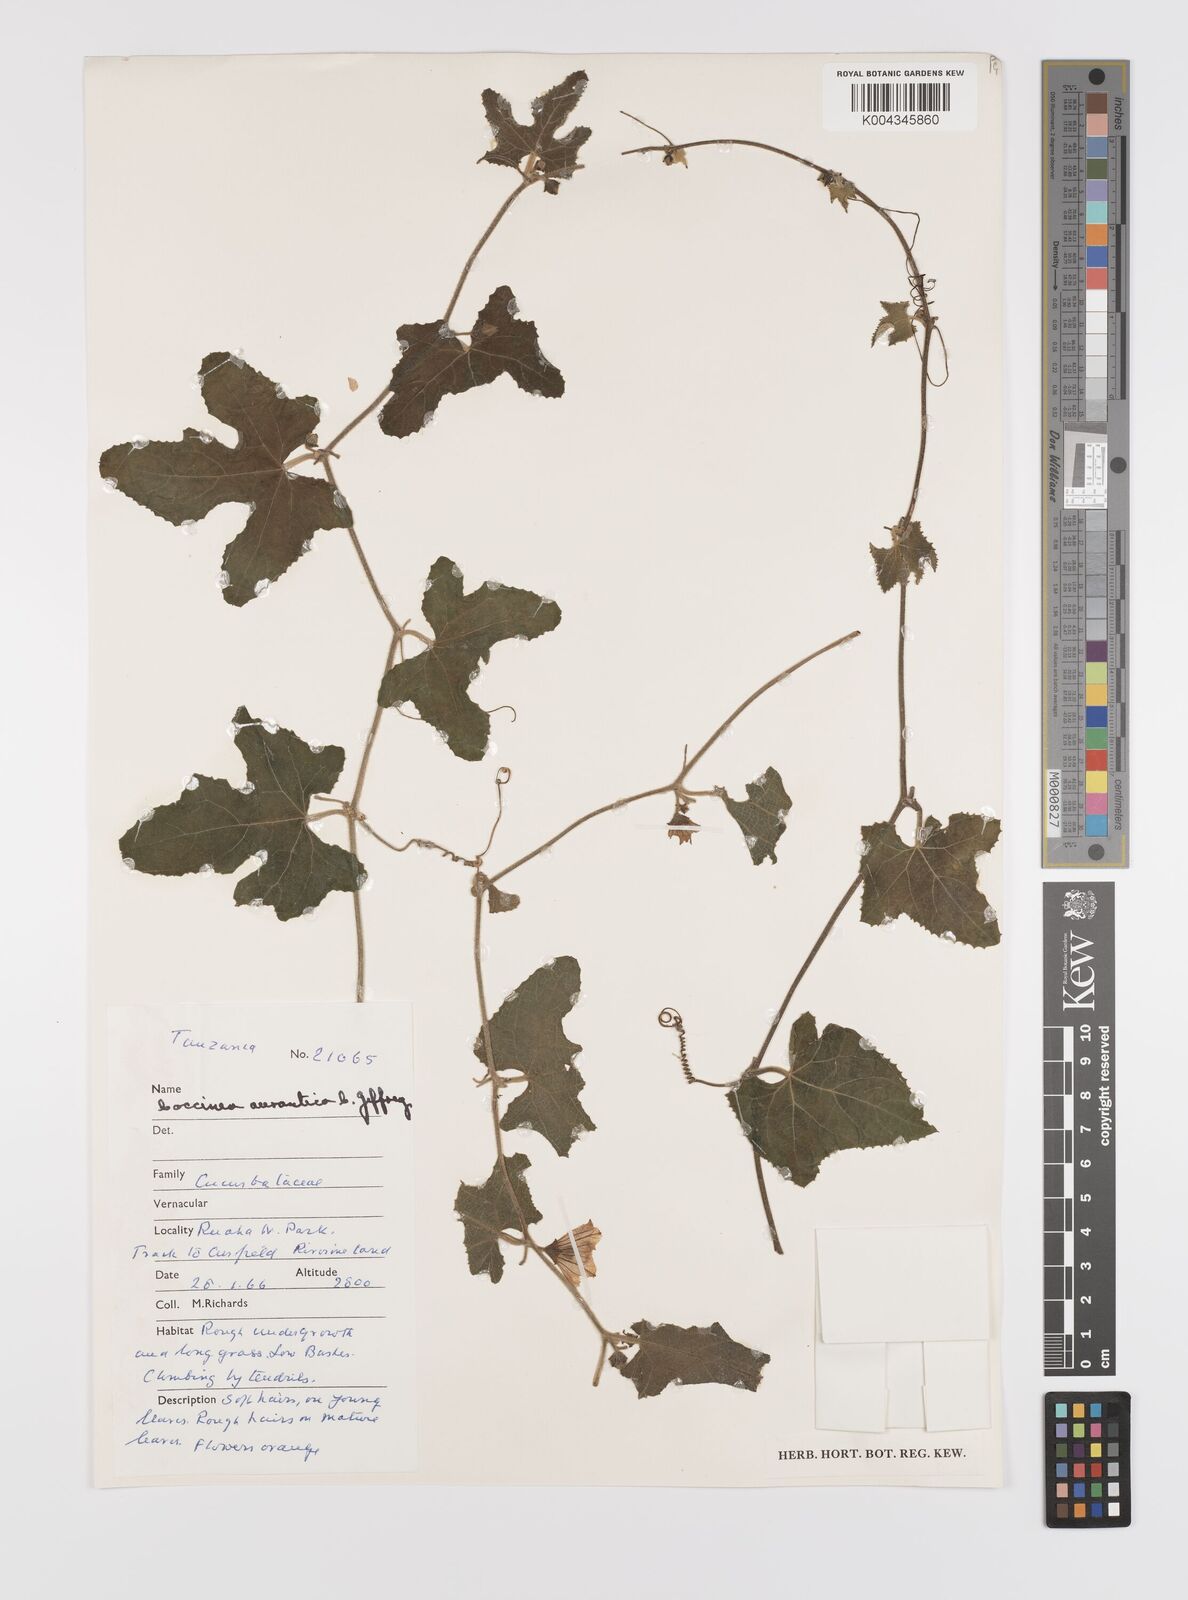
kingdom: Plantae
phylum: Tracheophyta
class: Magnoliopsida
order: Cucurbitales
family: Cucurbitaceae
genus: Coccinia
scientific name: Coccinia adoensis
